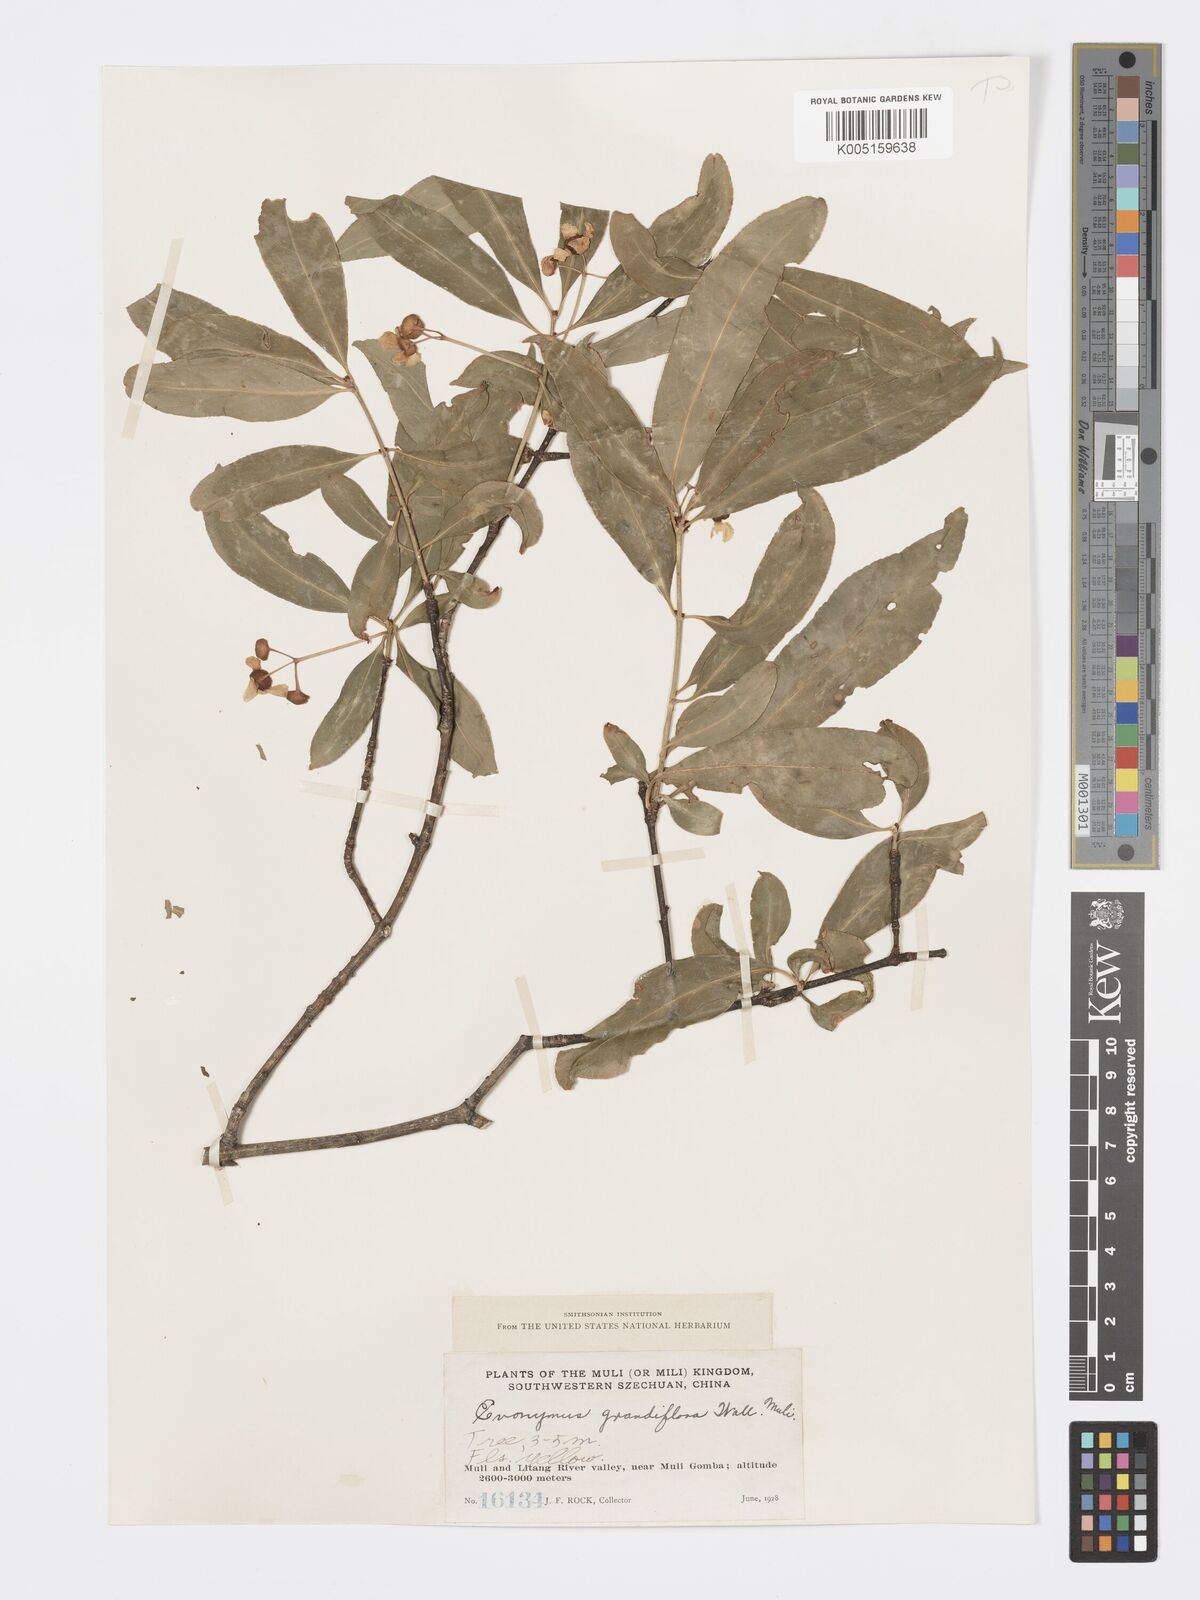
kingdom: Plantae
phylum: Tracheophyta
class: Magnoliopsida
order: Celastrales
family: Celastraceae
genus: Euonymus
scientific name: Euonymus grandiflorus
